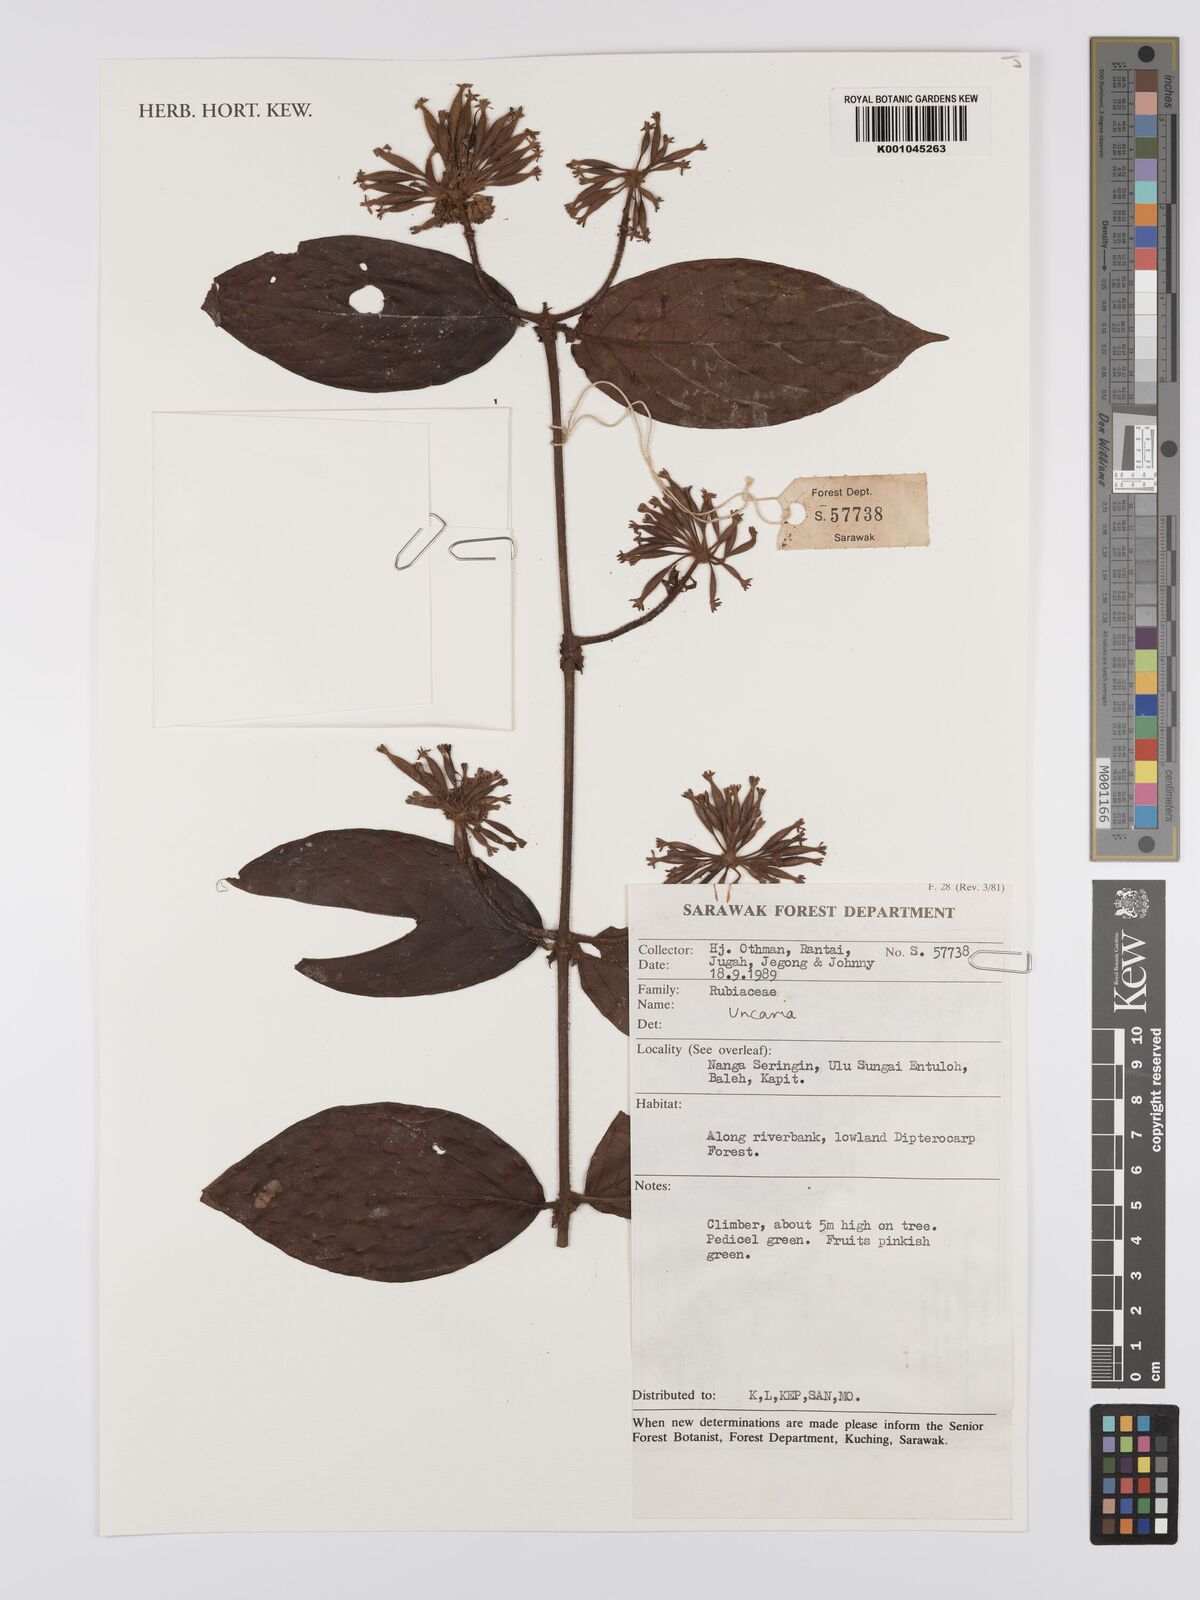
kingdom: Plantae
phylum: Tracheophyta
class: Magnoliopsida
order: Gentianales
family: Rubiaceae
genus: Uncaria
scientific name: Uncaria
